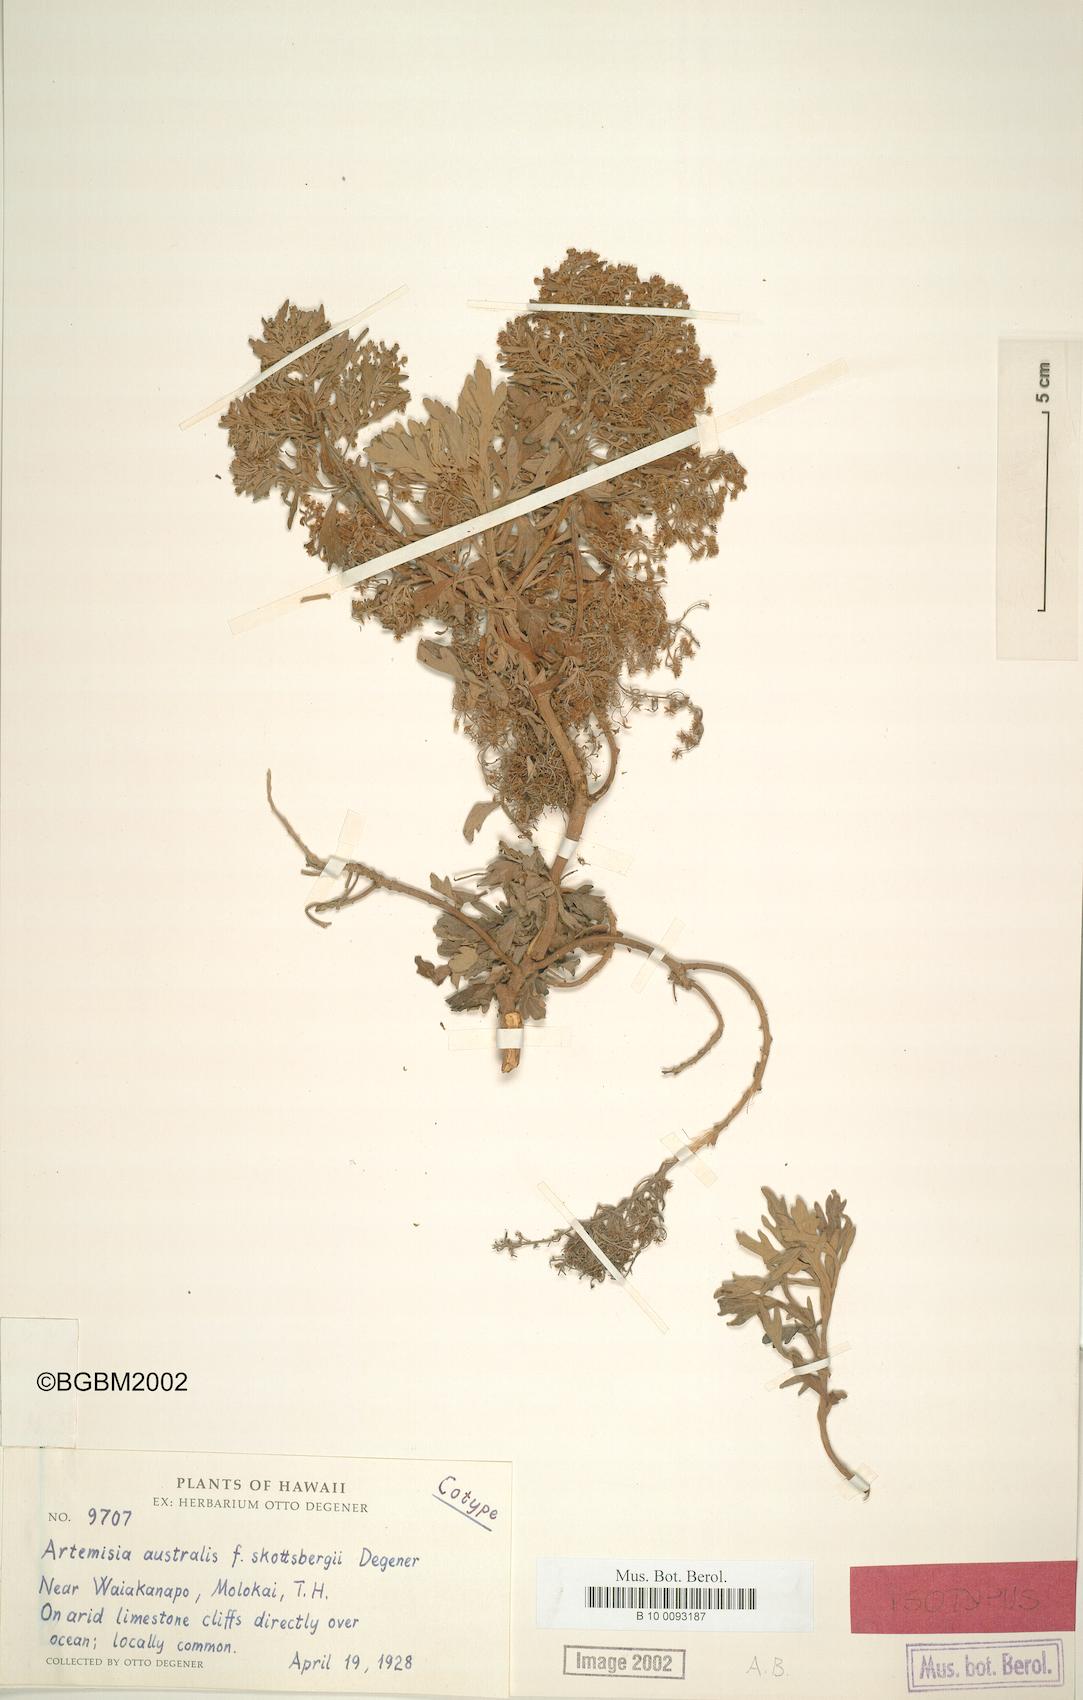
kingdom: Plantae
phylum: Tracheophyta
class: Magnoliopsida
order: Asterales
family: Asteraceae
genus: Artemisia
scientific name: Artemisia australis
